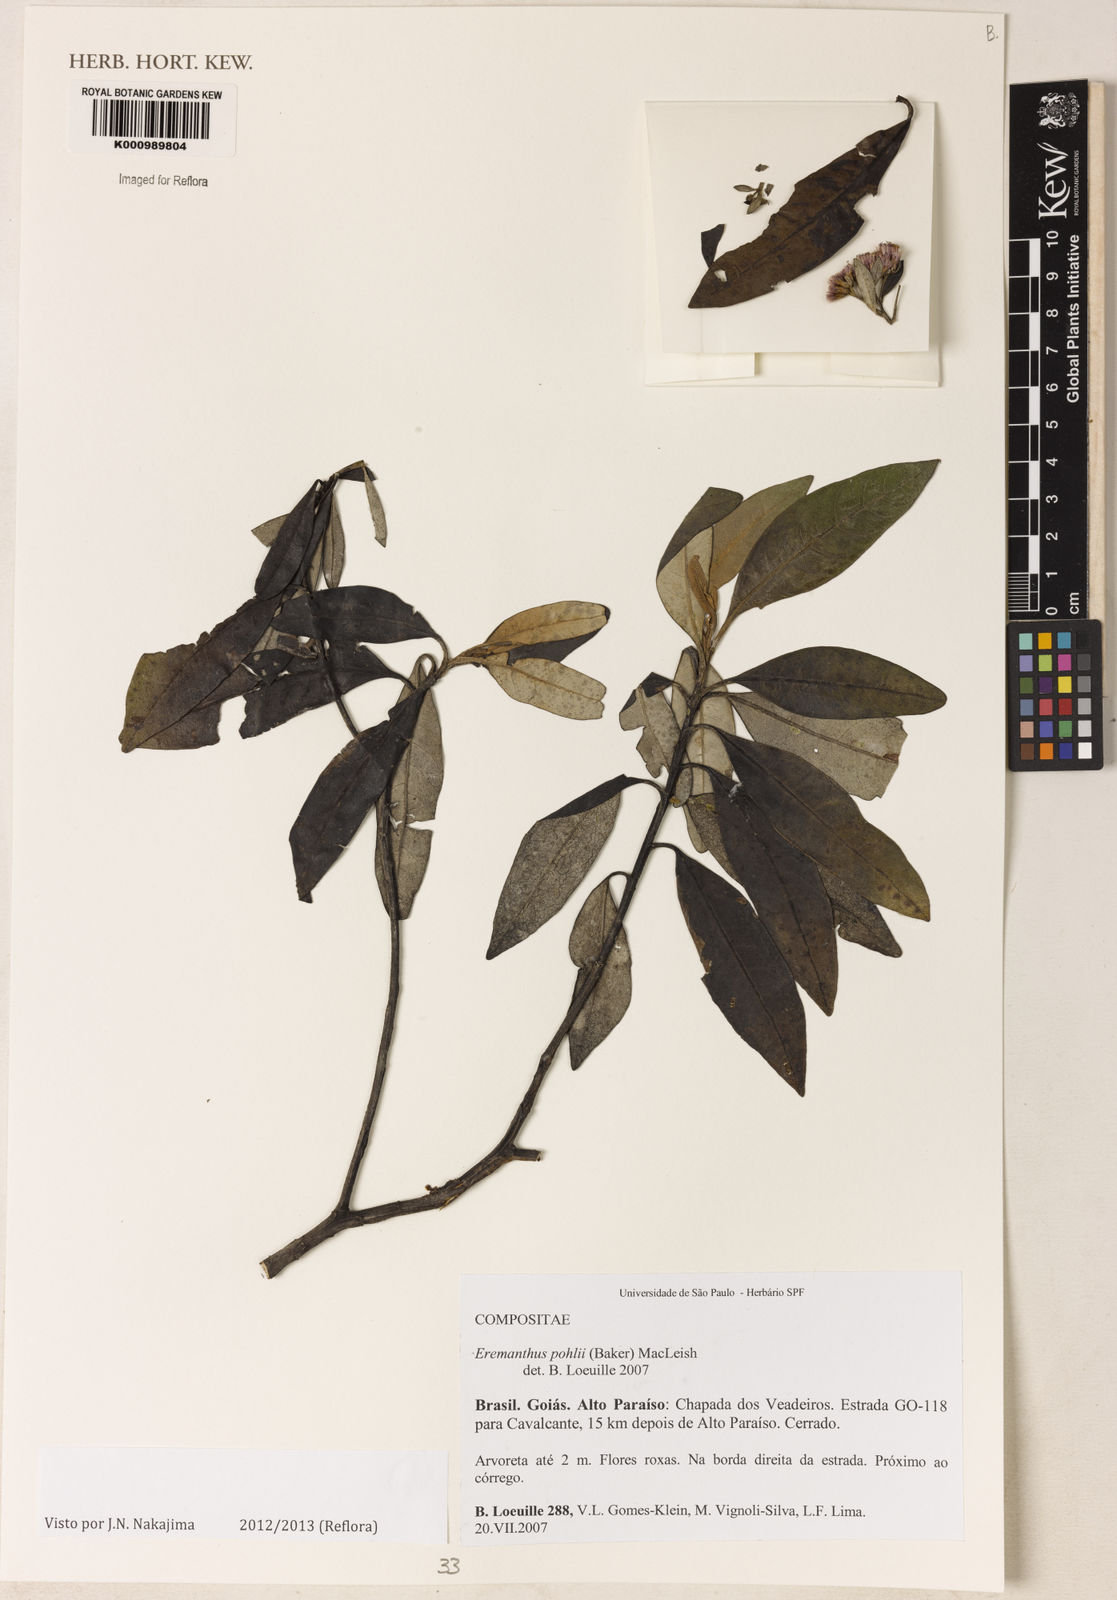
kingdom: Plantae
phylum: Tracheophyta
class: Magnoliopsida
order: Asterales
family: Asteraceae
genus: Eremanthus
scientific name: Eremanthus capitatus
